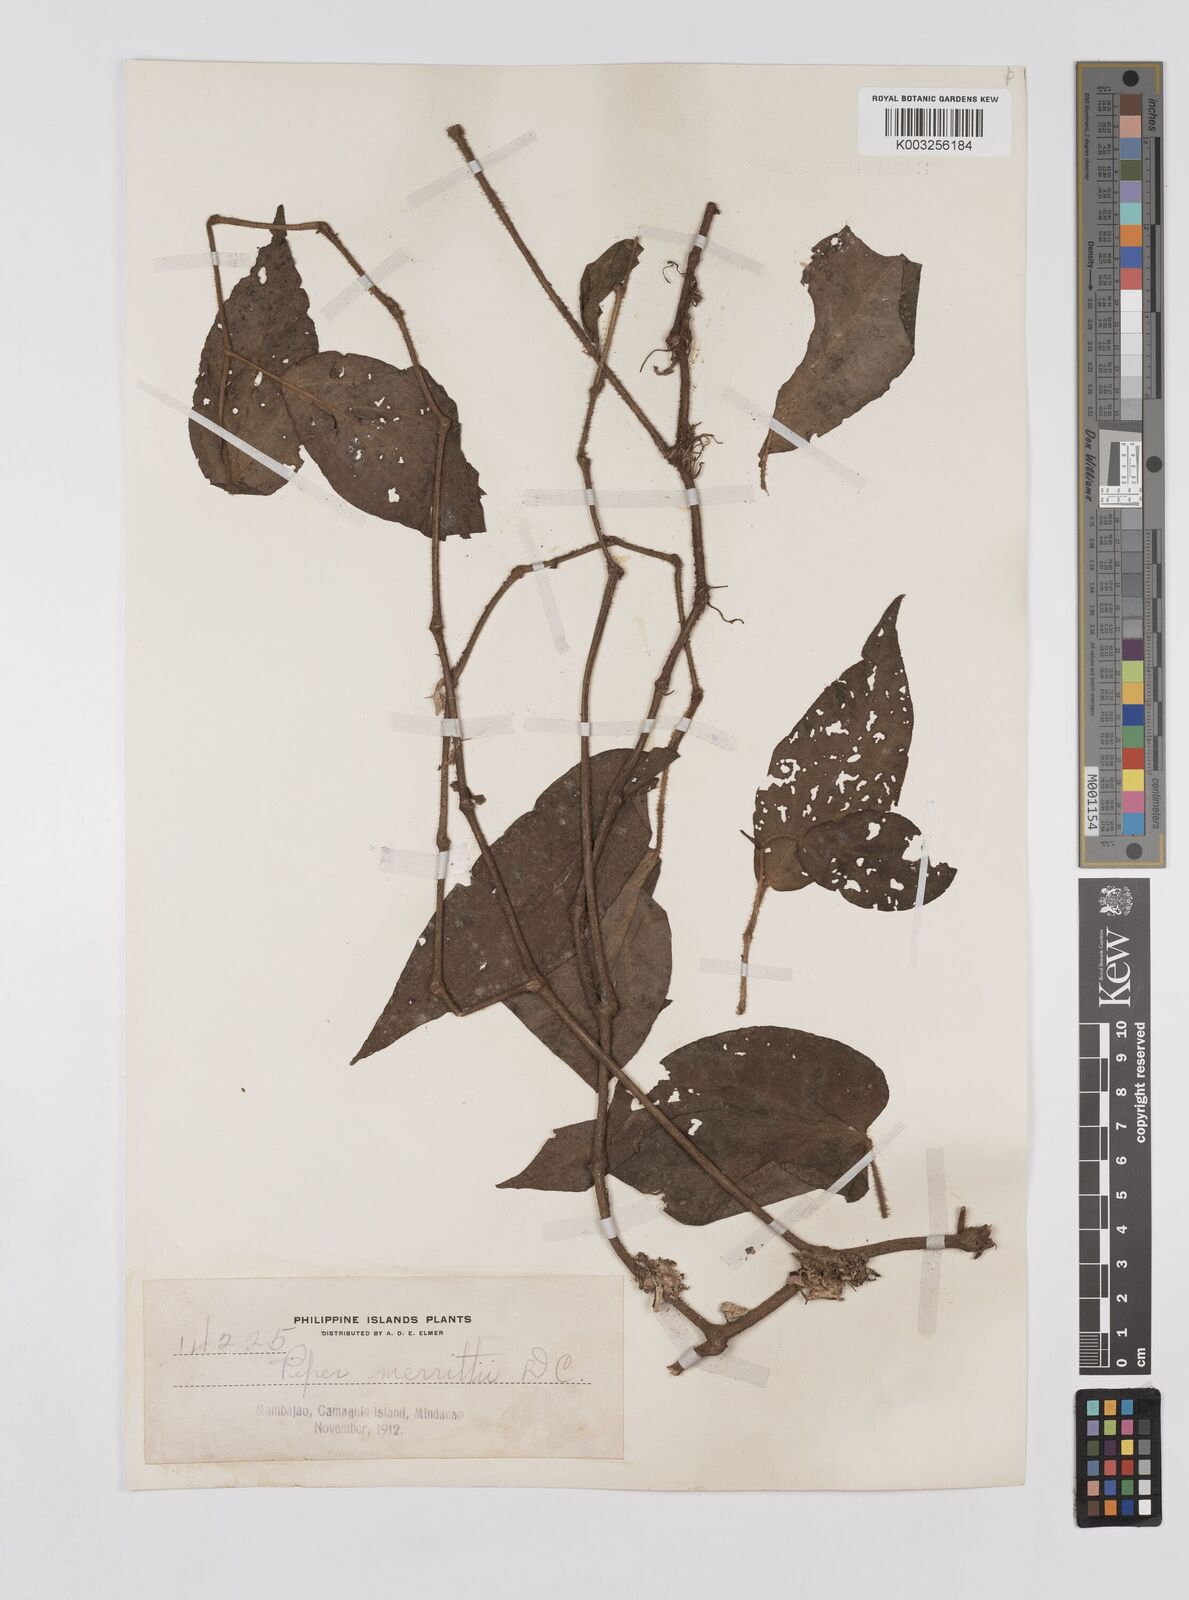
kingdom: Plantae
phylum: Tracheophyta
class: Magnoliopsida
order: Piperales
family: Piperaceae
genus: Piper
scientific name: Piper lanatum
